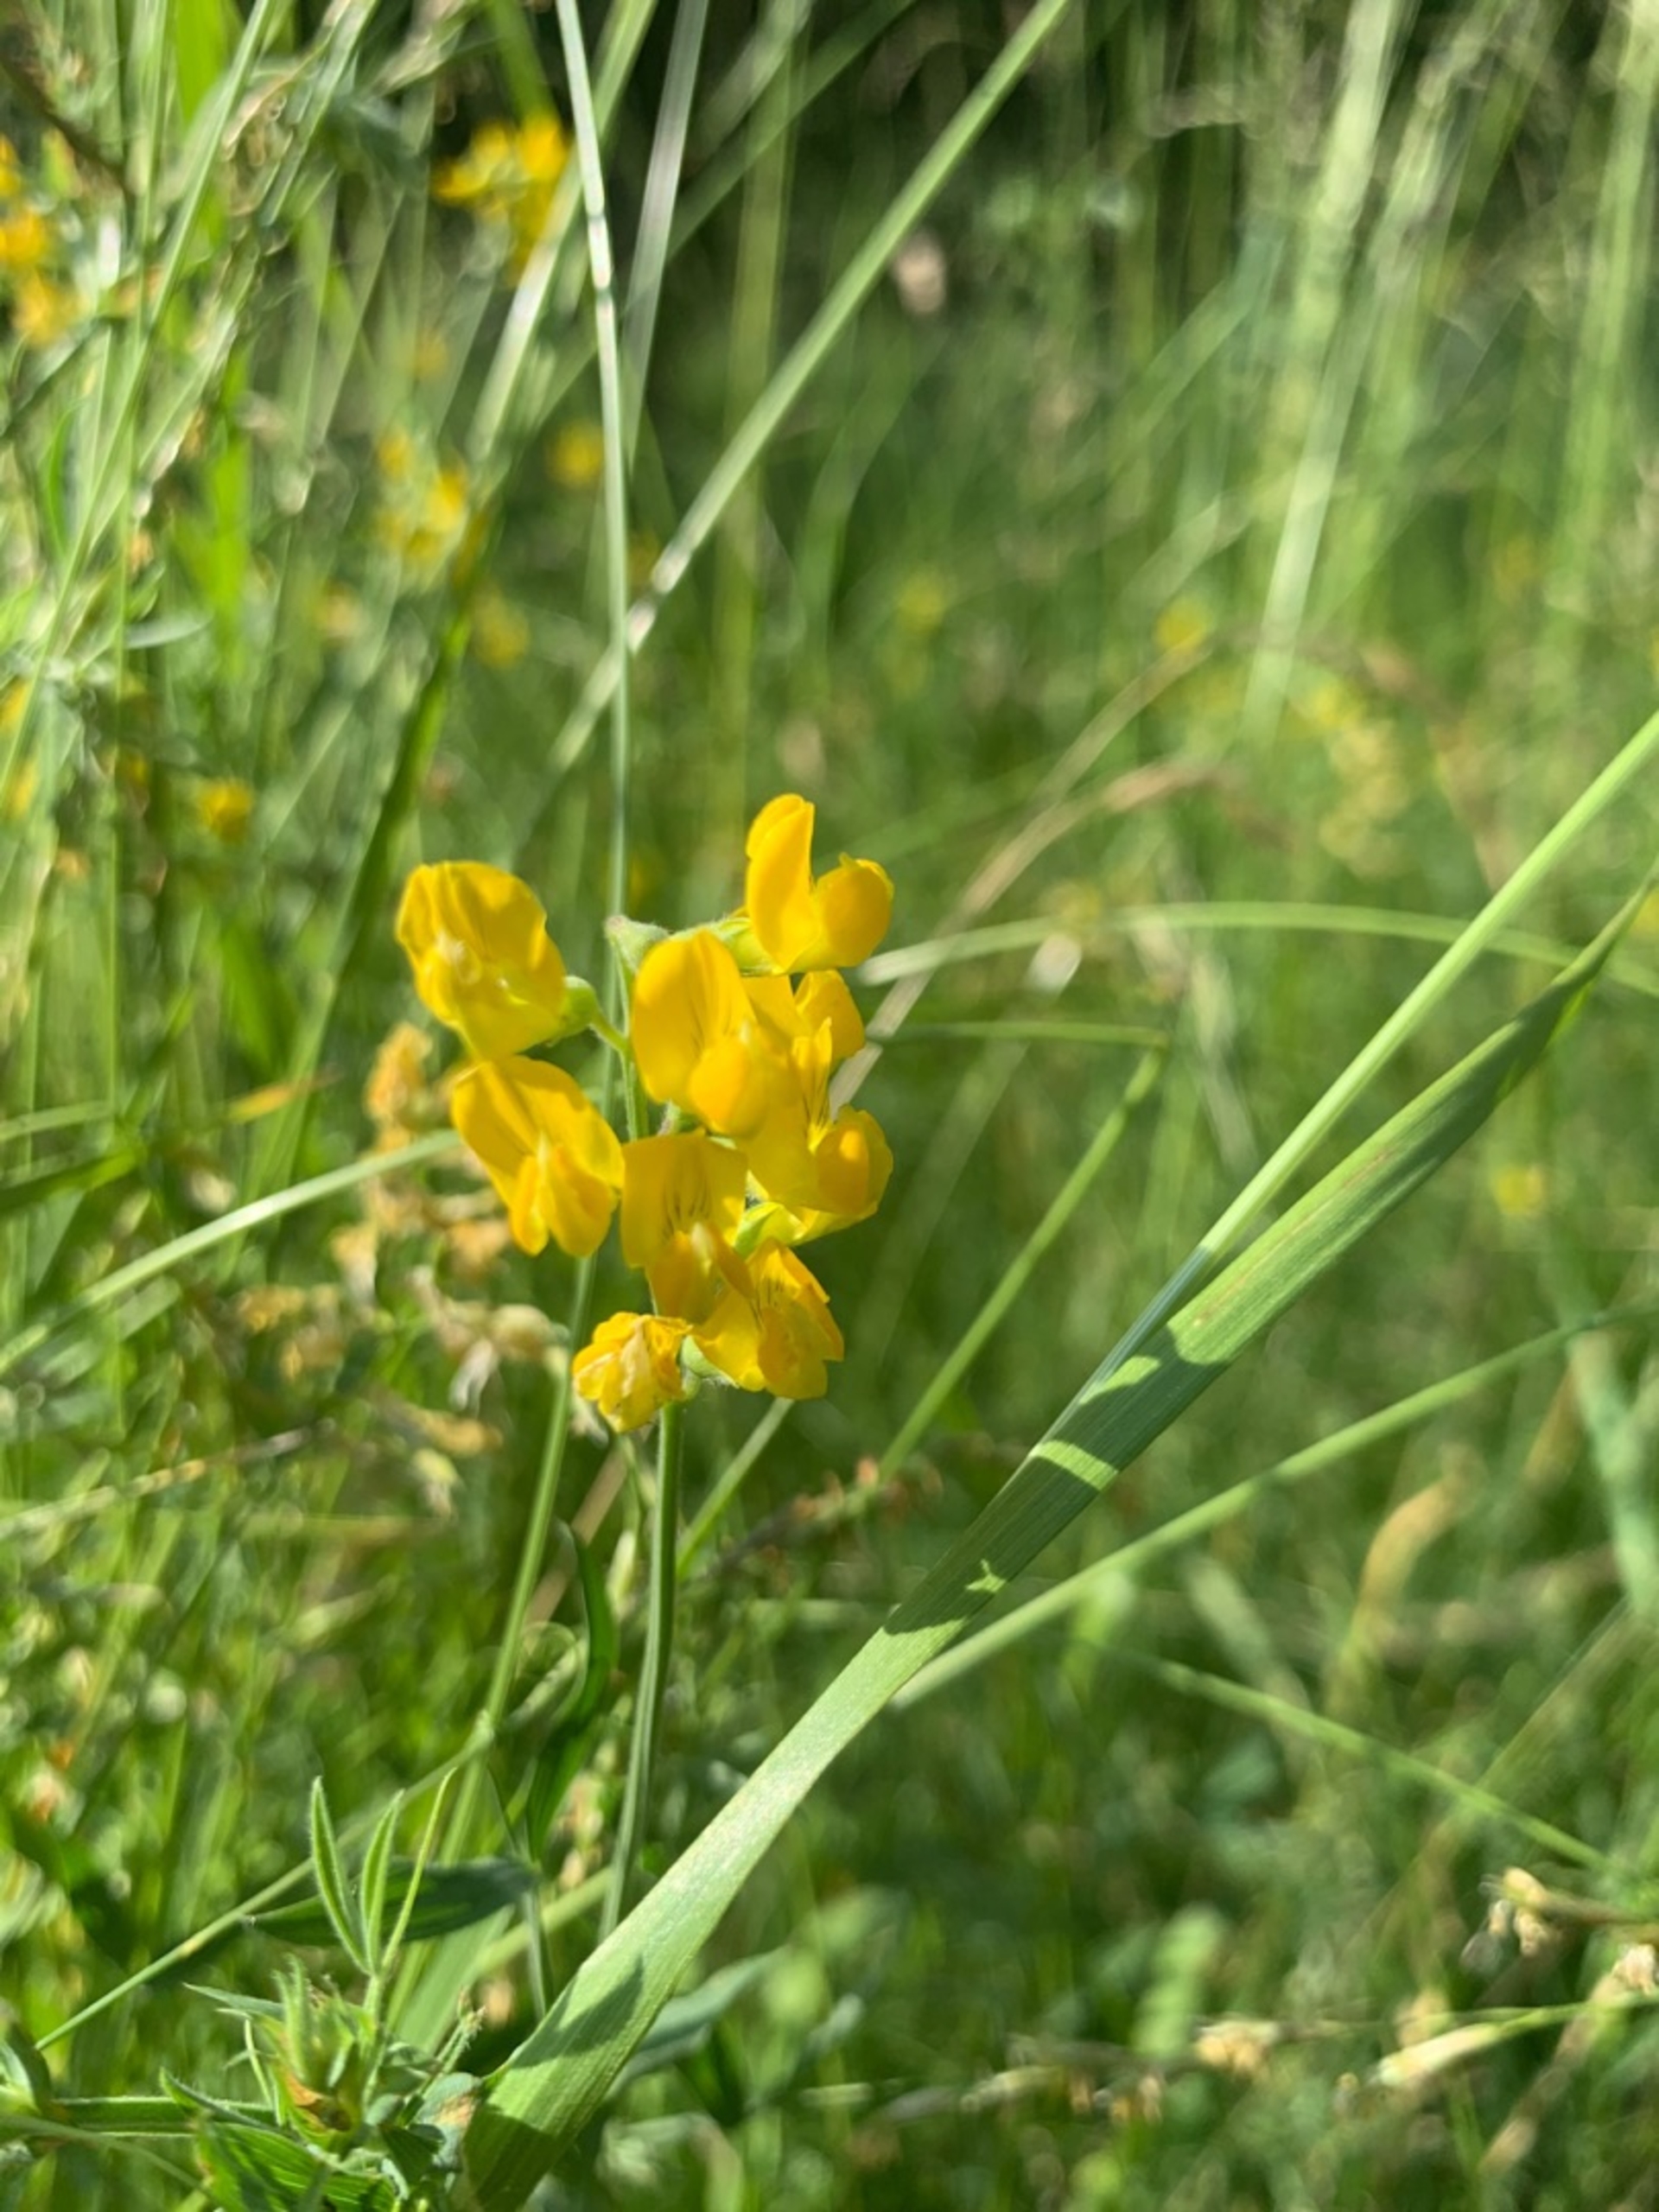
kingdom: Plantae
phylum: Tracheophyta
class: Magnoliopsida
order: Fabales
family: Fabaceae
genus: Lathyrus
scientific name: Lathyrus pratensis
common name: Gul fladbælg
